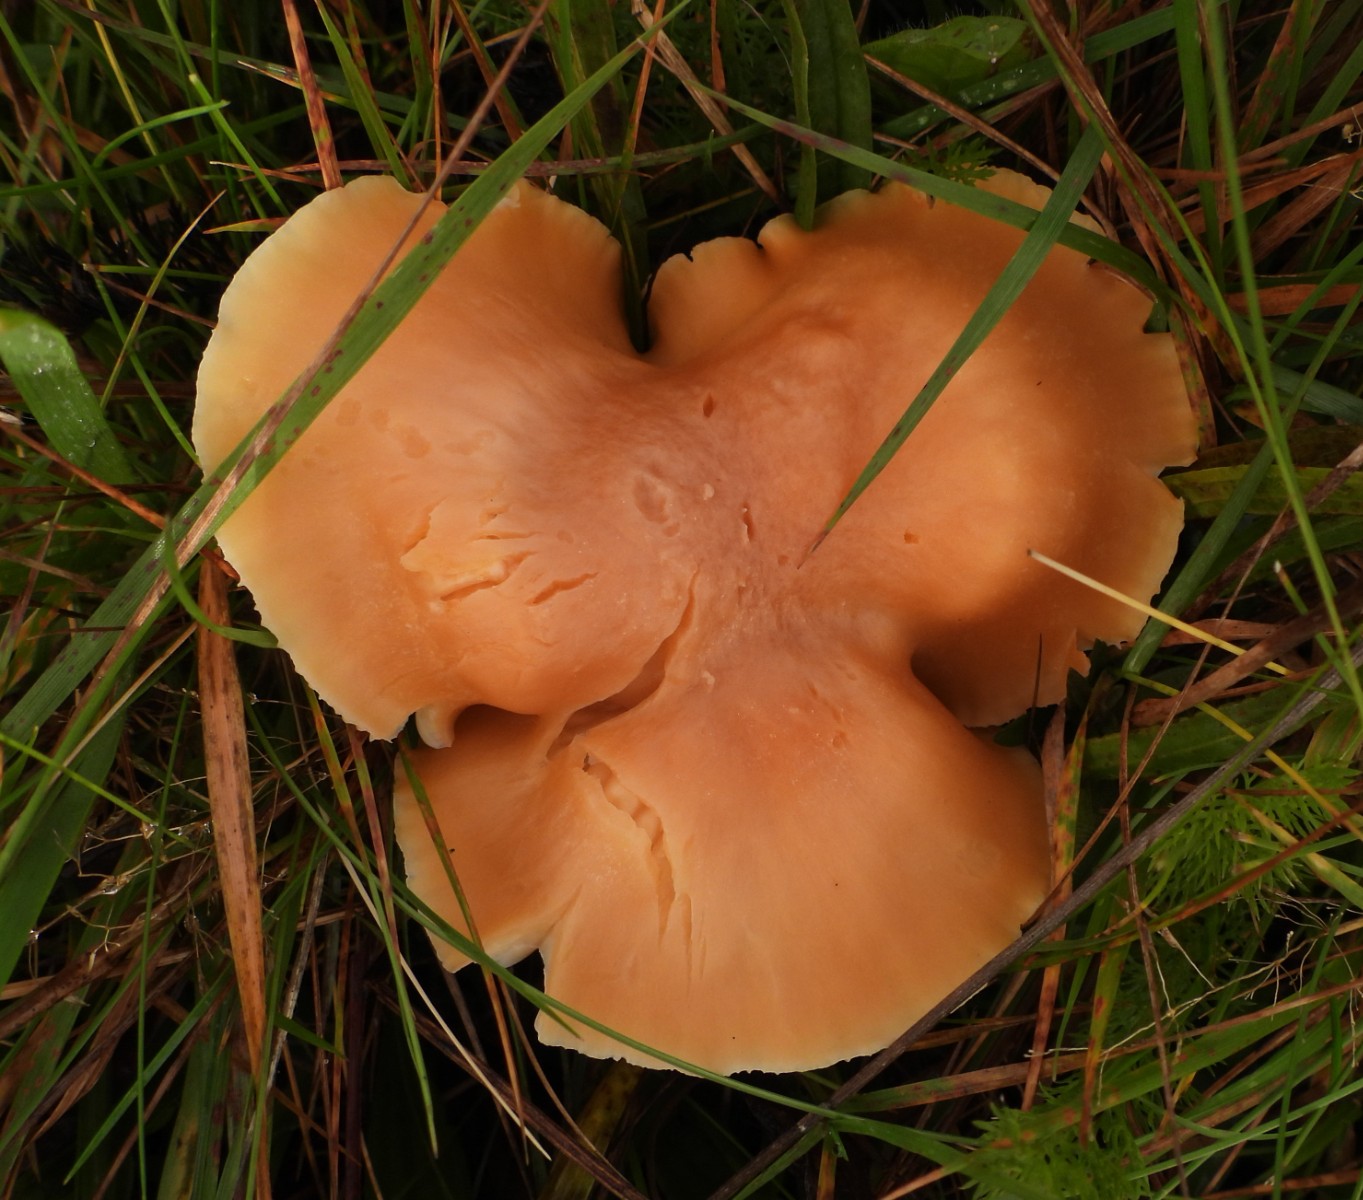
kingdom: Fungi
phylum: Basidiomycota
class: Agaricomycetes
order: Agaricales
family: Hygrophoraceae
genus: Cuphophyllus
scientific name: Cuphophyllus pratensis
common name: eng-vokshat
